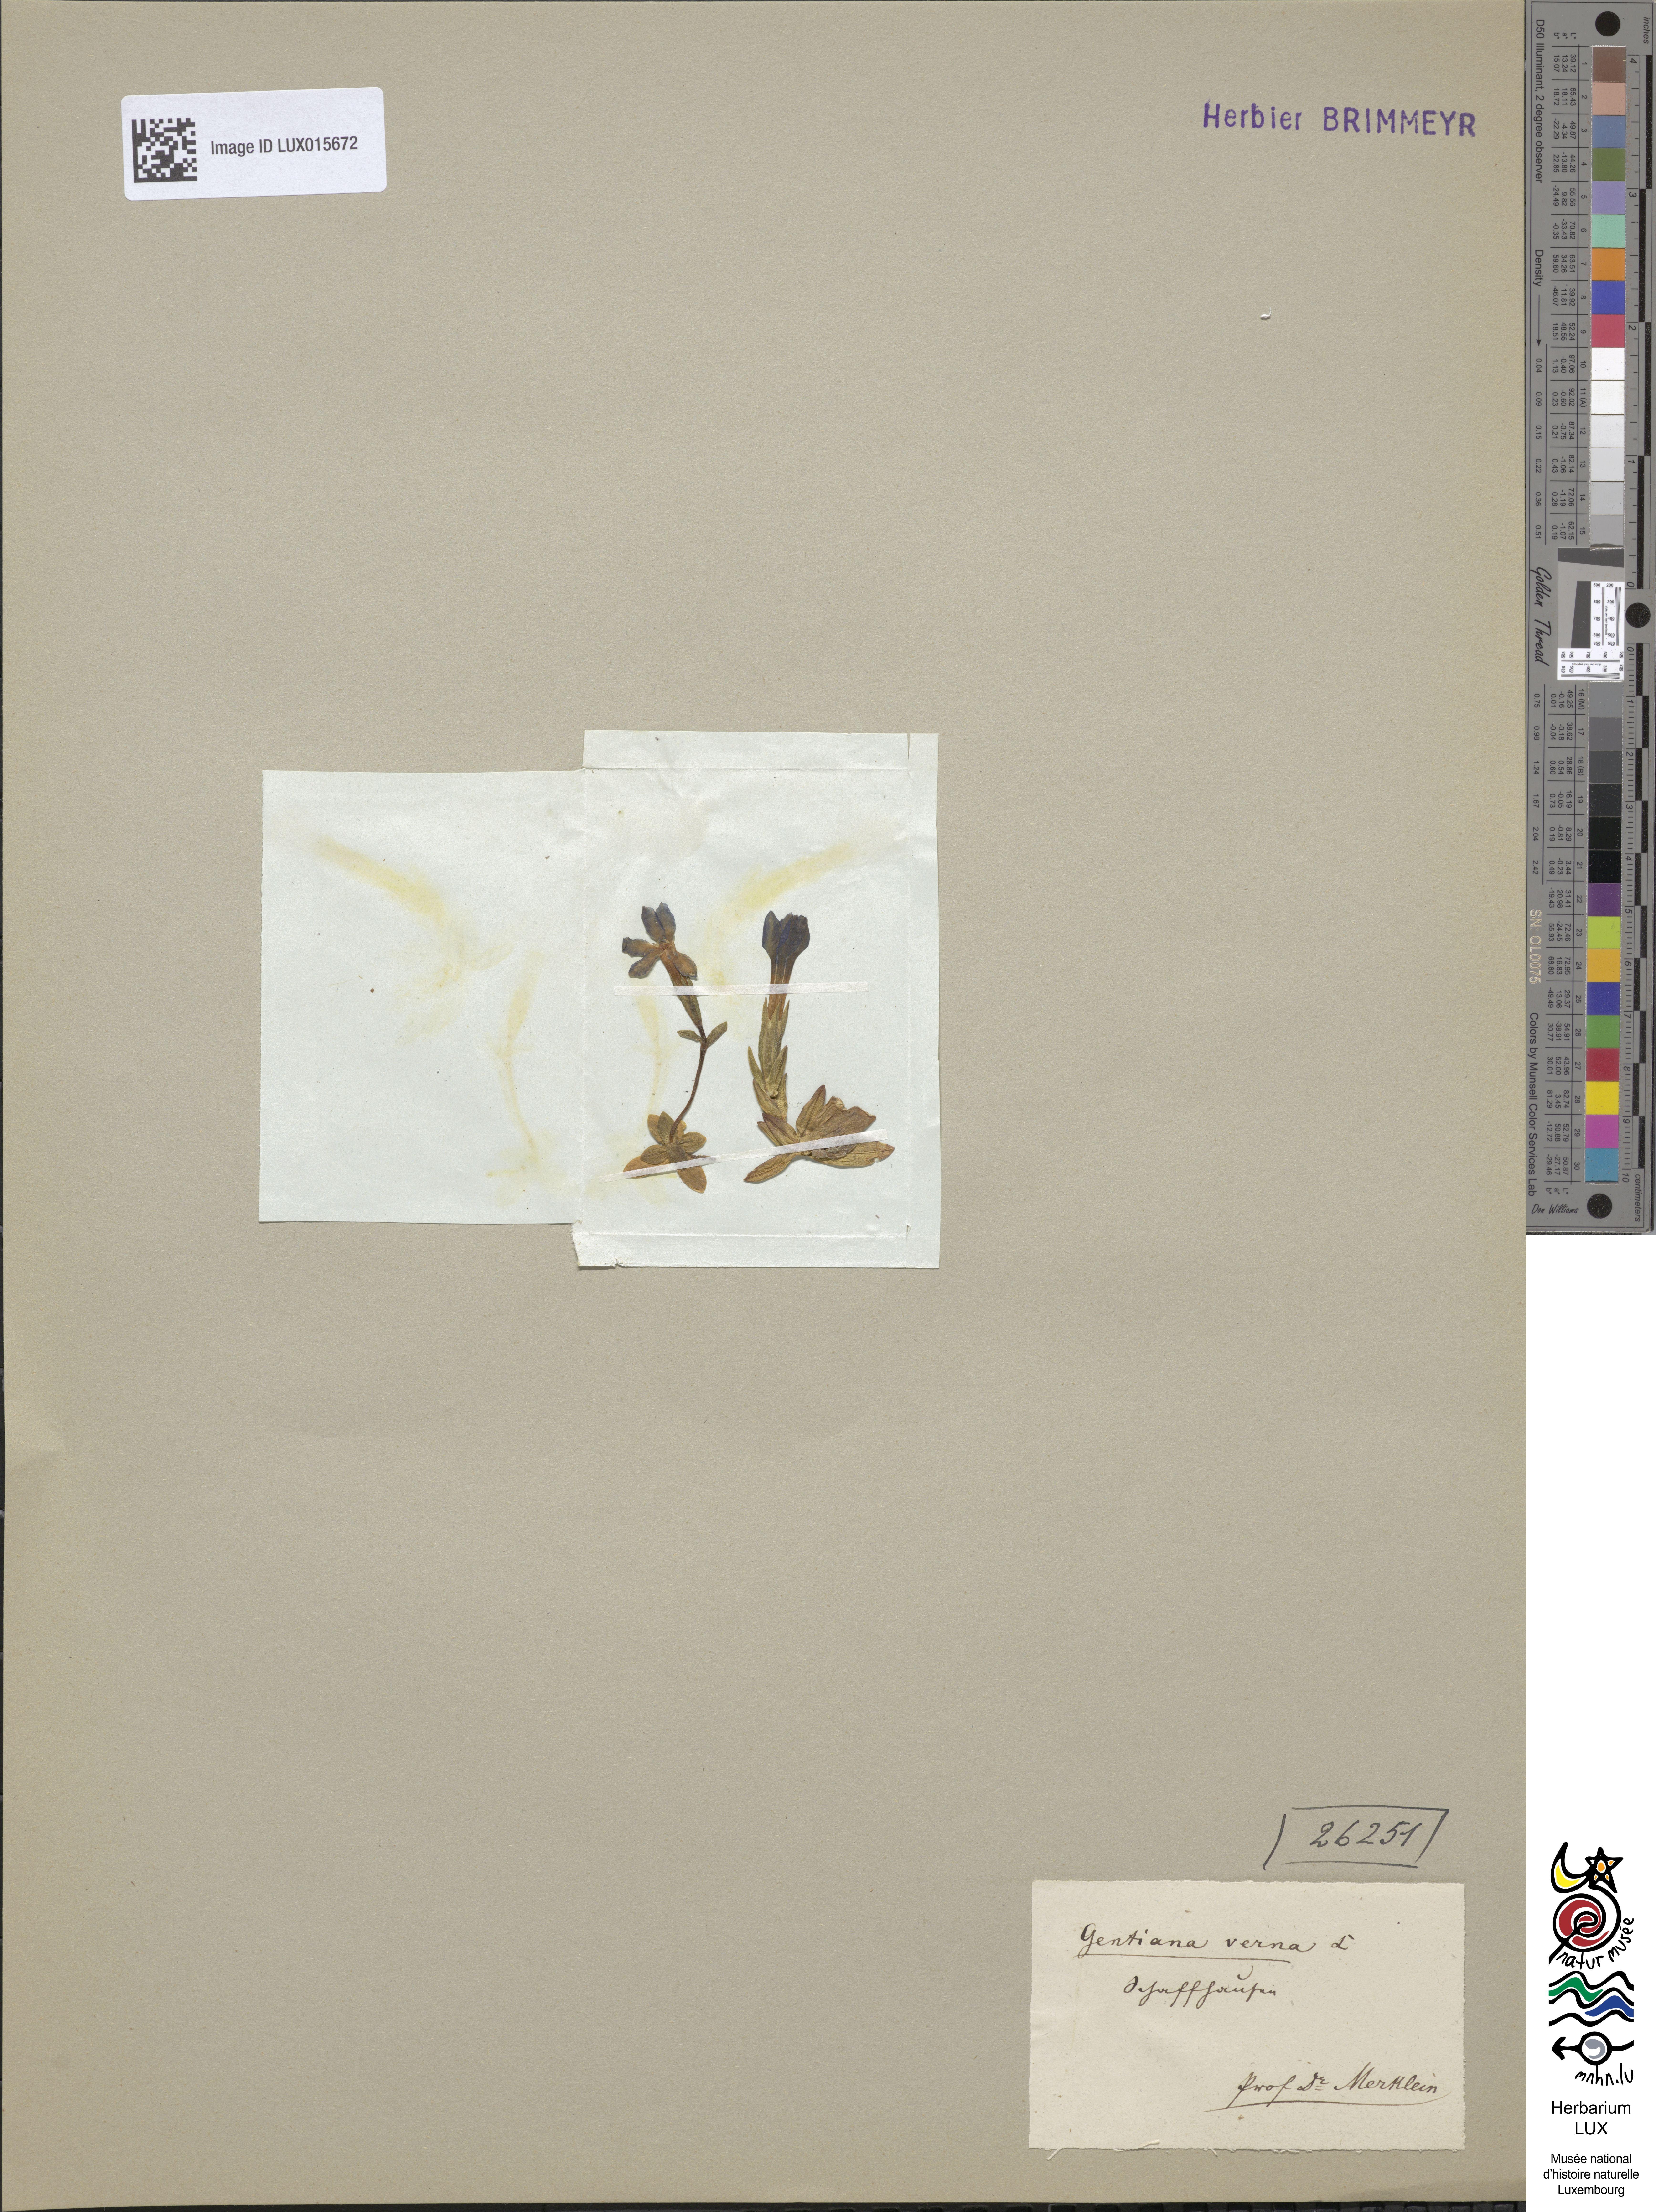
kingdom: Plantae
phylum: Tracheophyta
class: Magnoliopsida
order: Gentianales
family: Gentianaceae
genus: Gentiana
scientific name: Gentiana verna
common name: Spring gentian
